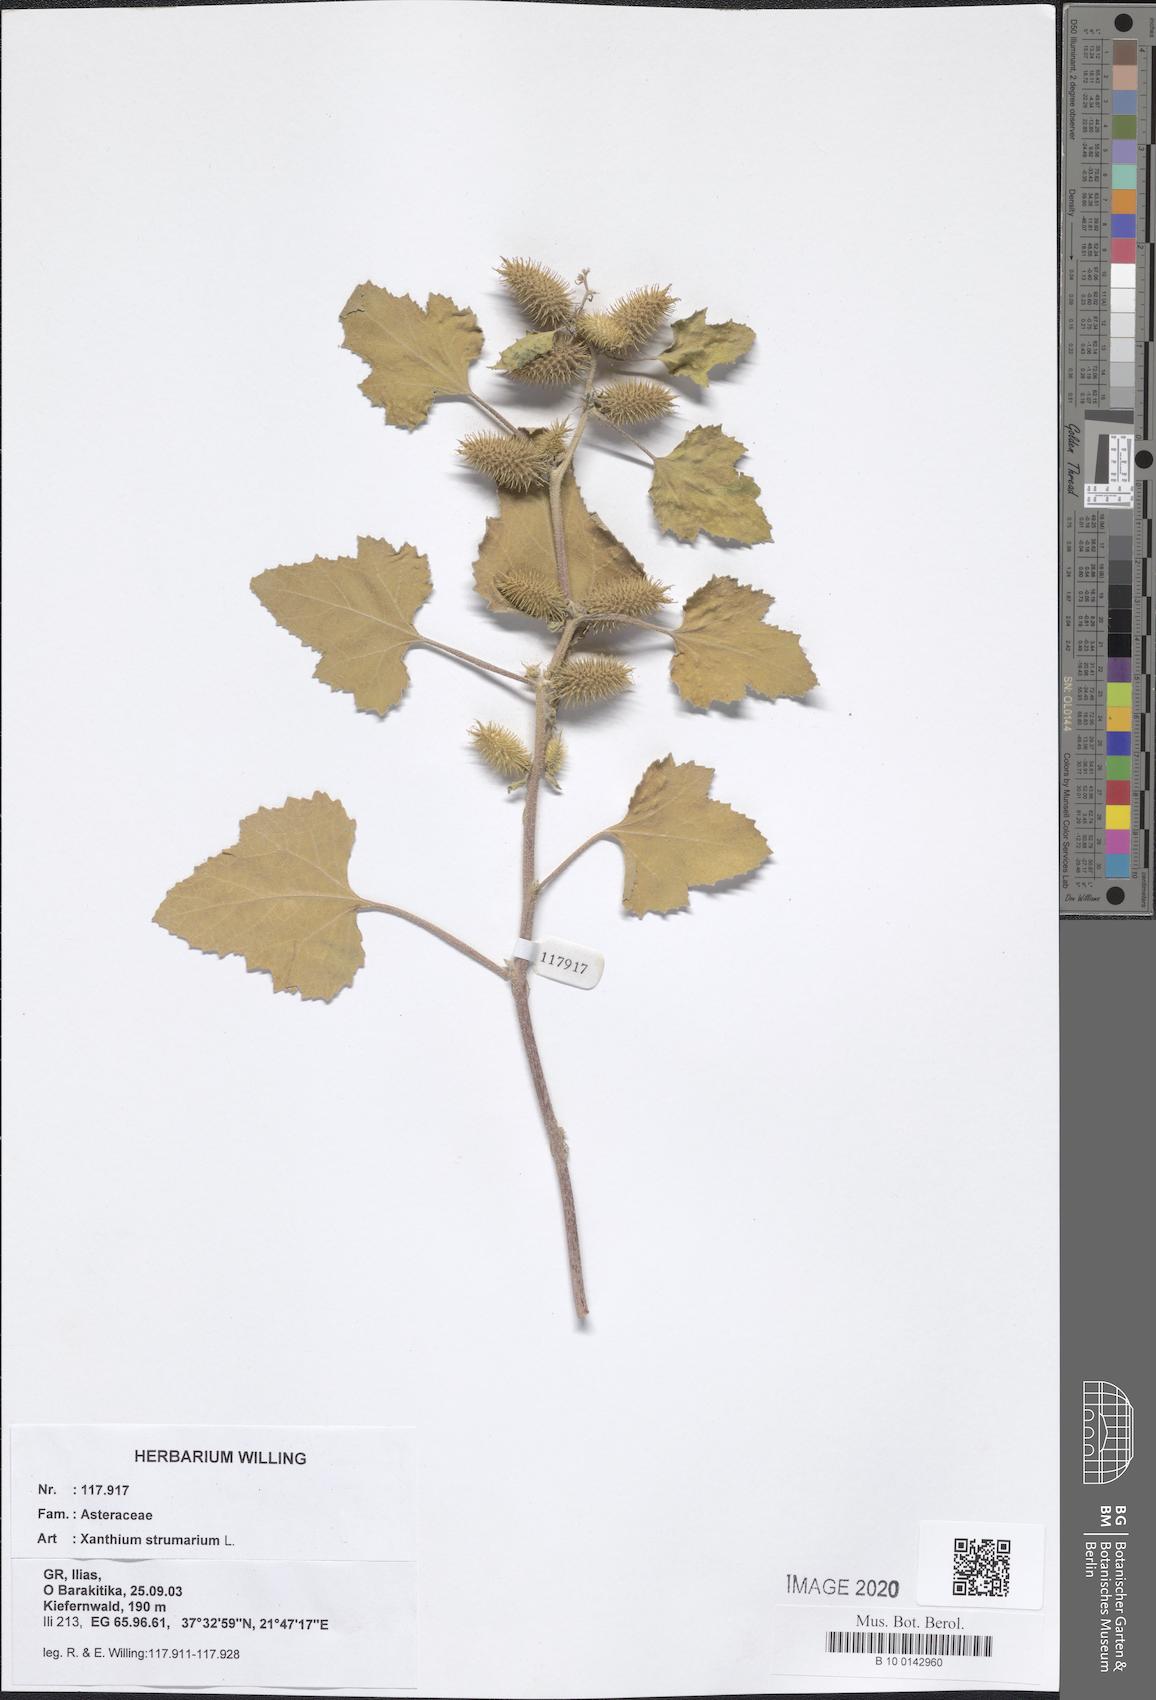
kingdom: Plantae
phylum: Tracheophyta
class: Magnoliopsida
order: Asterales
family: Asteraceae
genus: Xanthium
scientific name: Xanthium strumarium
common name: Rough cocklebur
